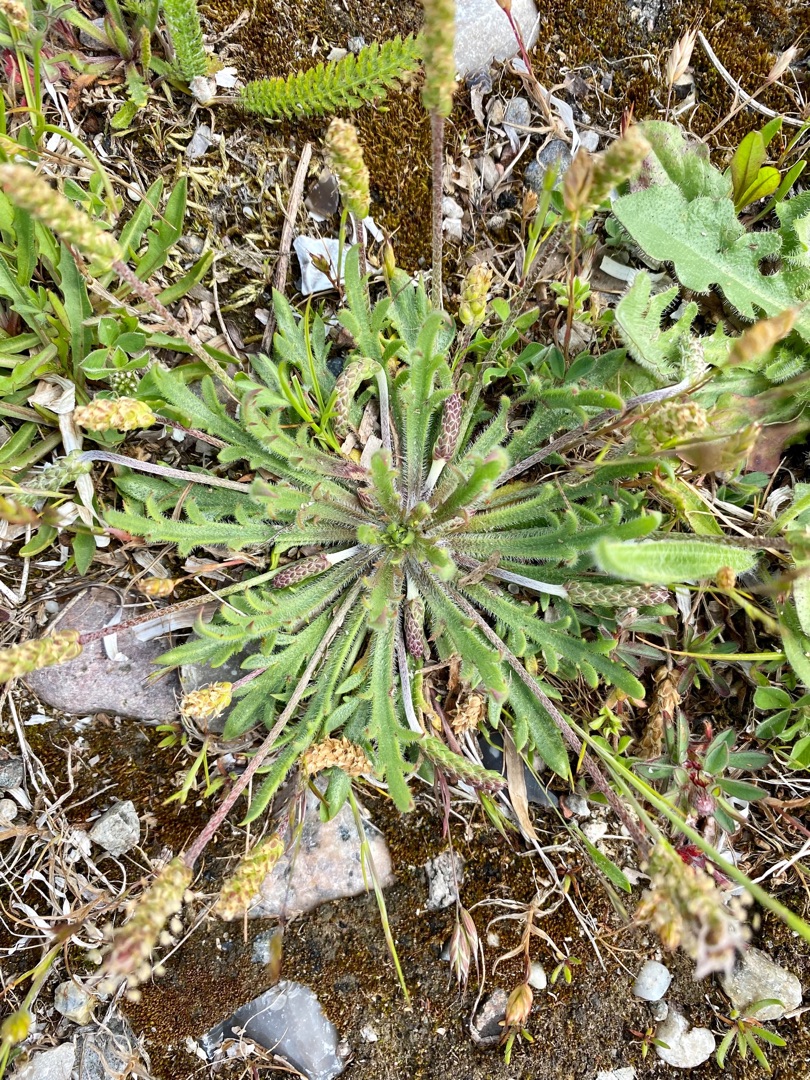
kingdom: Plantae
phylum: Tracheophyta
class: Magnoliopsida
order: Lamiales
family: Plantaginaceae
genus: Plantago
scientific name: Plantago coronopus
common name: Fliget vejbred
